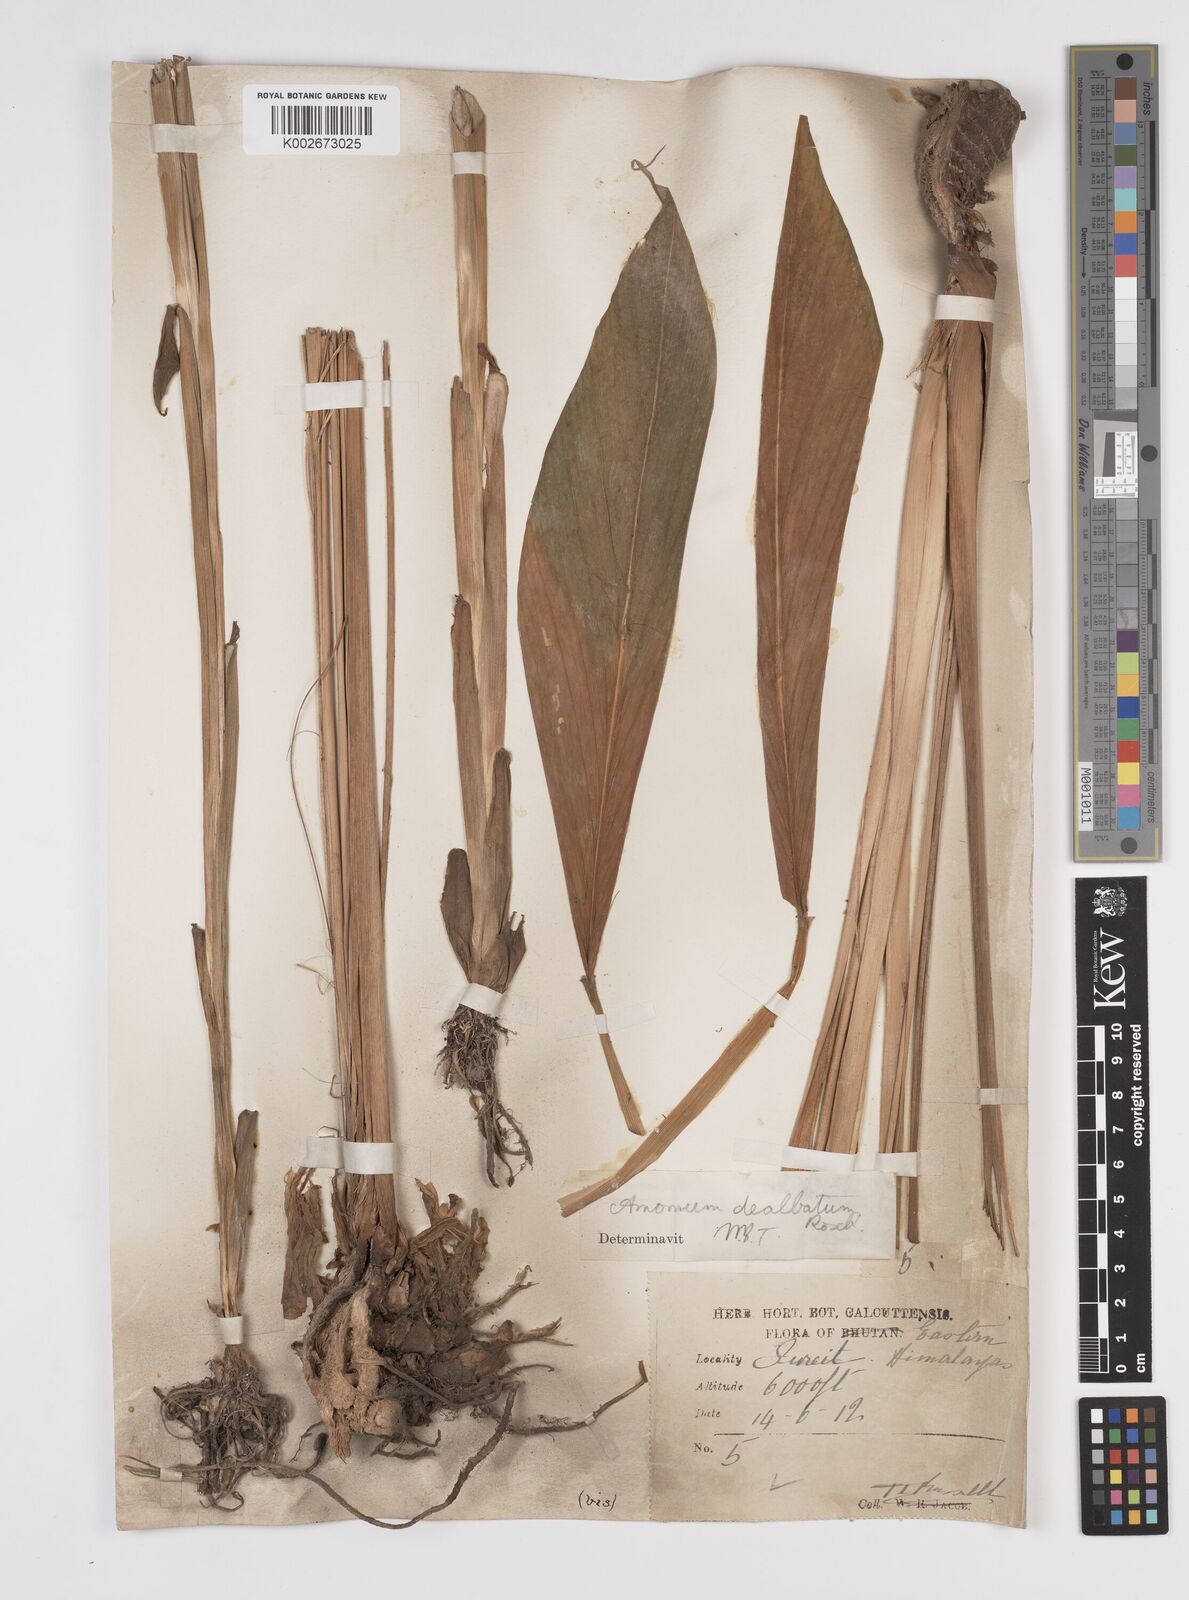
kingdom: Plantae
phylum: Tracheophyta
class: Liliopsida
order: Zingiberales
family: Zingiberaceae
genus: Amomum
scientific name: Amomum dealbatum
